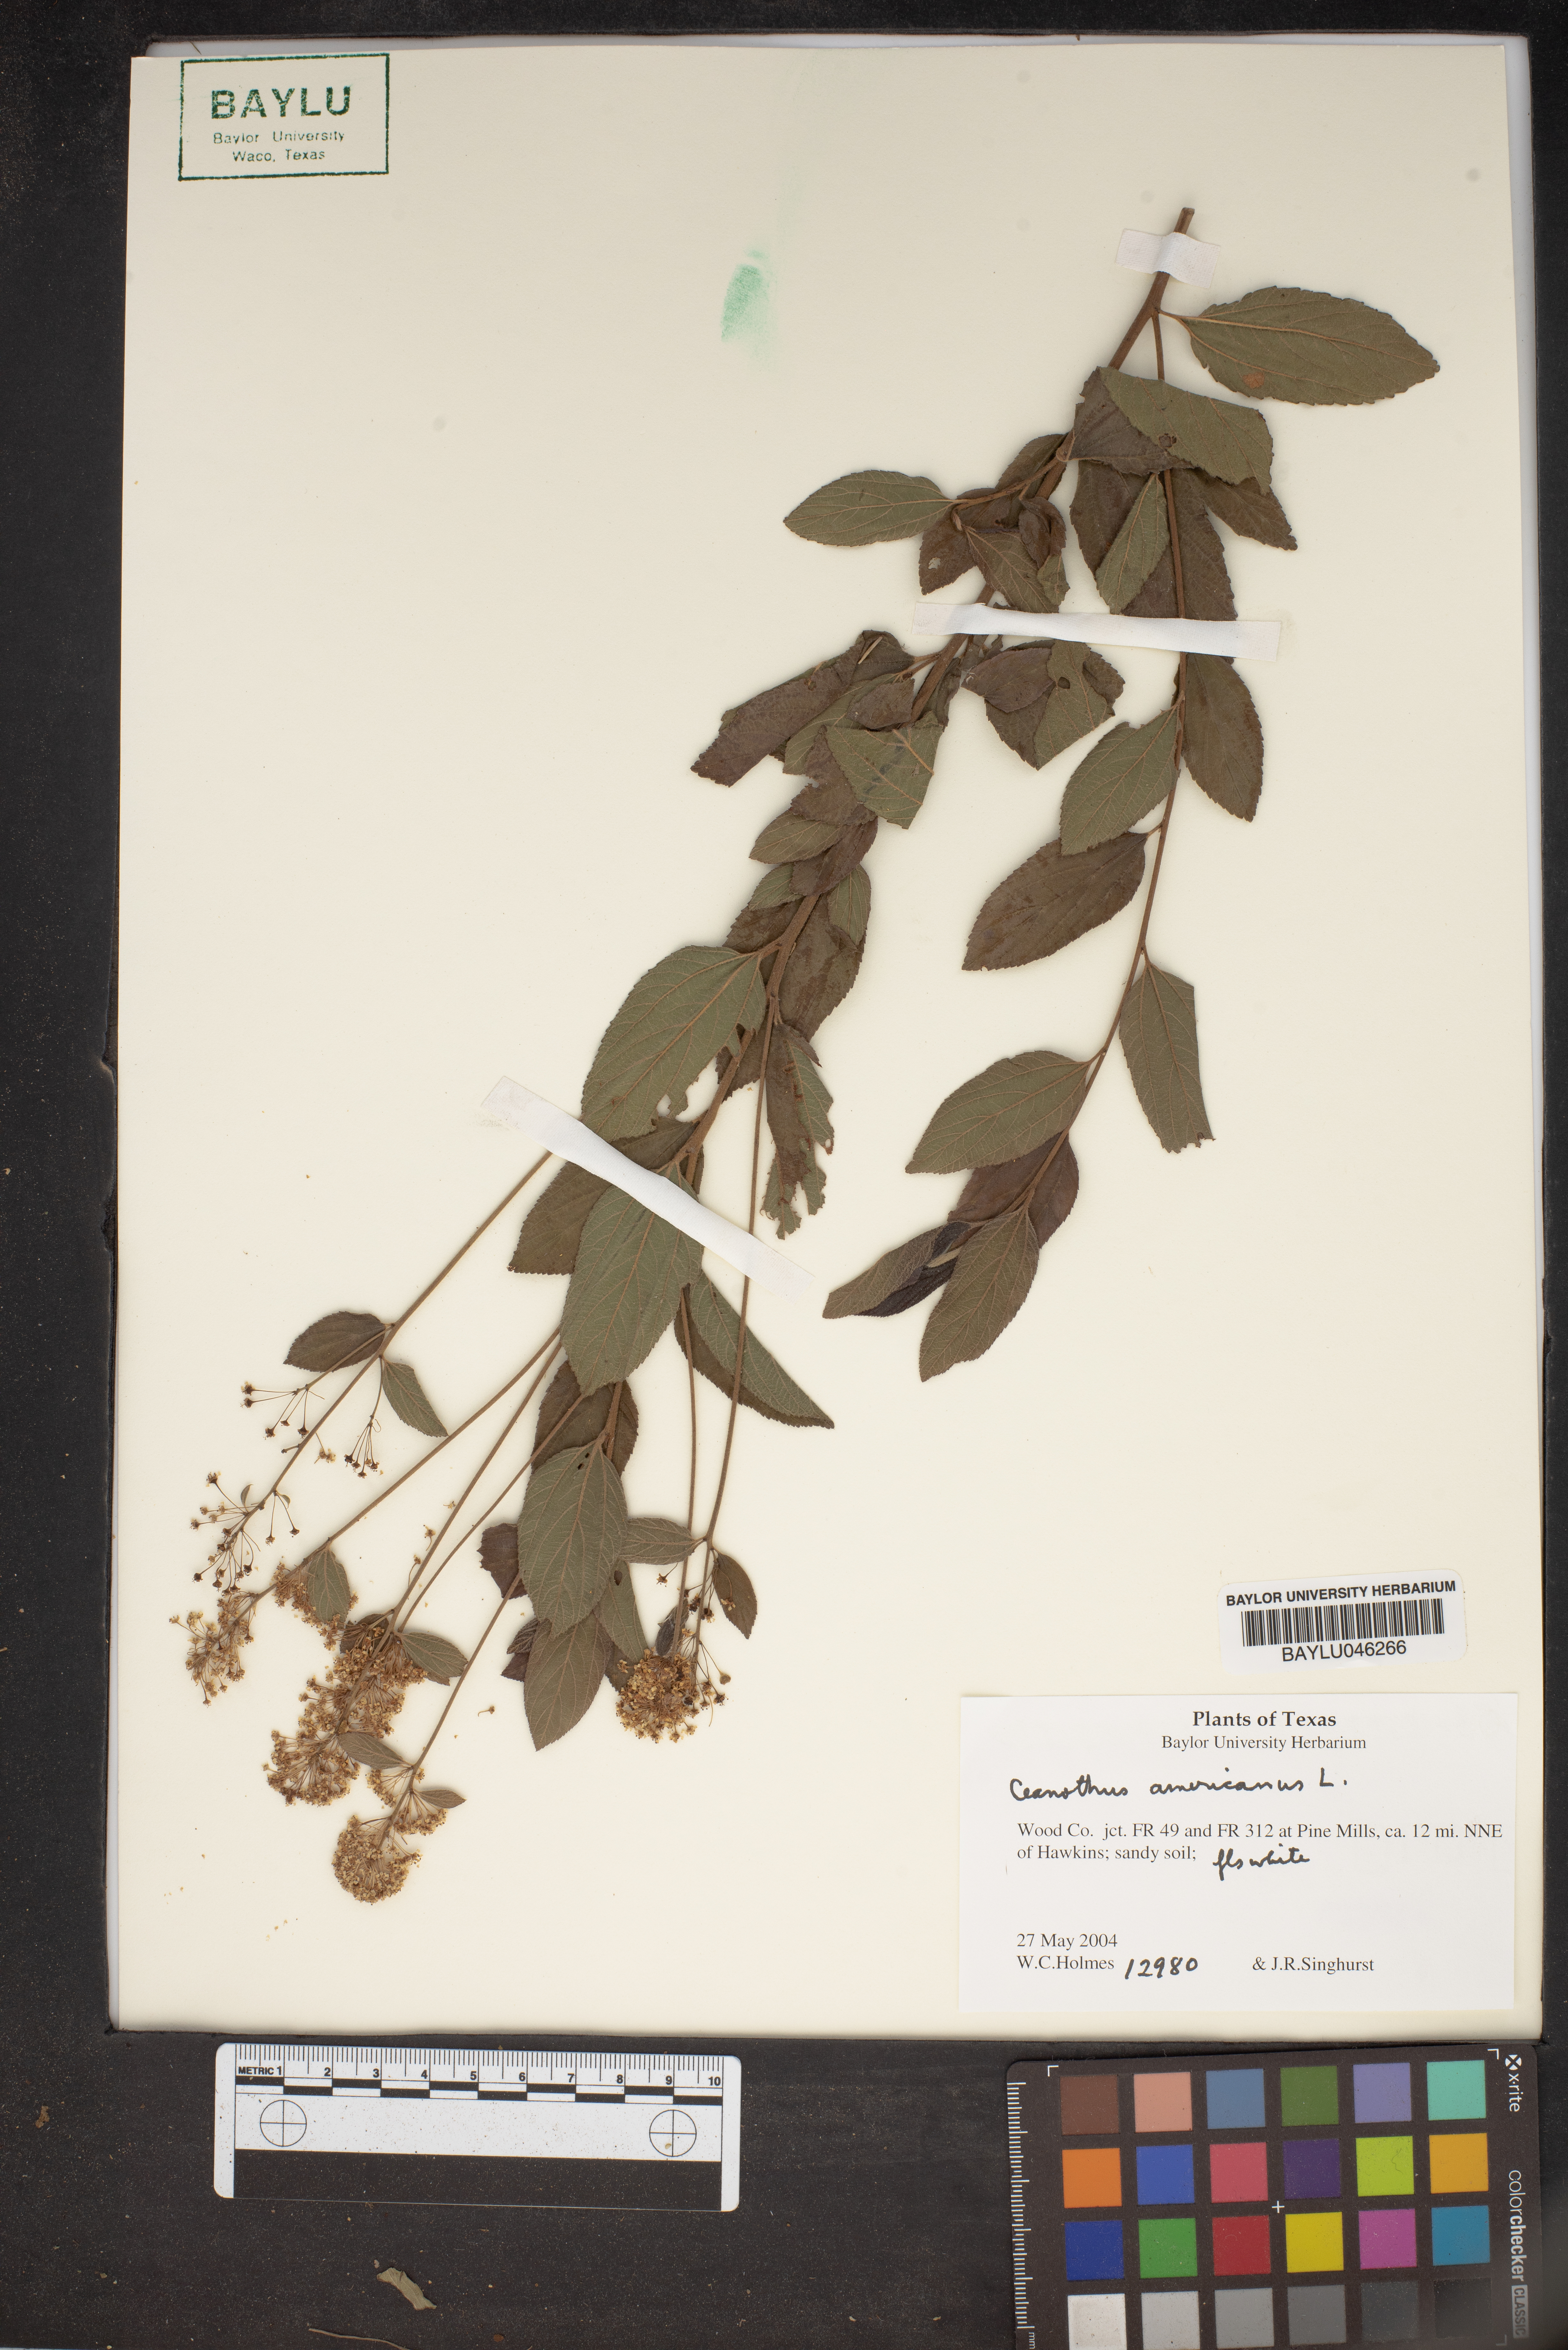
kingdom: Plantae
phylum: Tracheophyta
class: Magnoliopsida
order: Rosales
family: Rhamnaceae
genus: Ceanothus
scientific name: Ceanothus americanus
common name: Redroot
